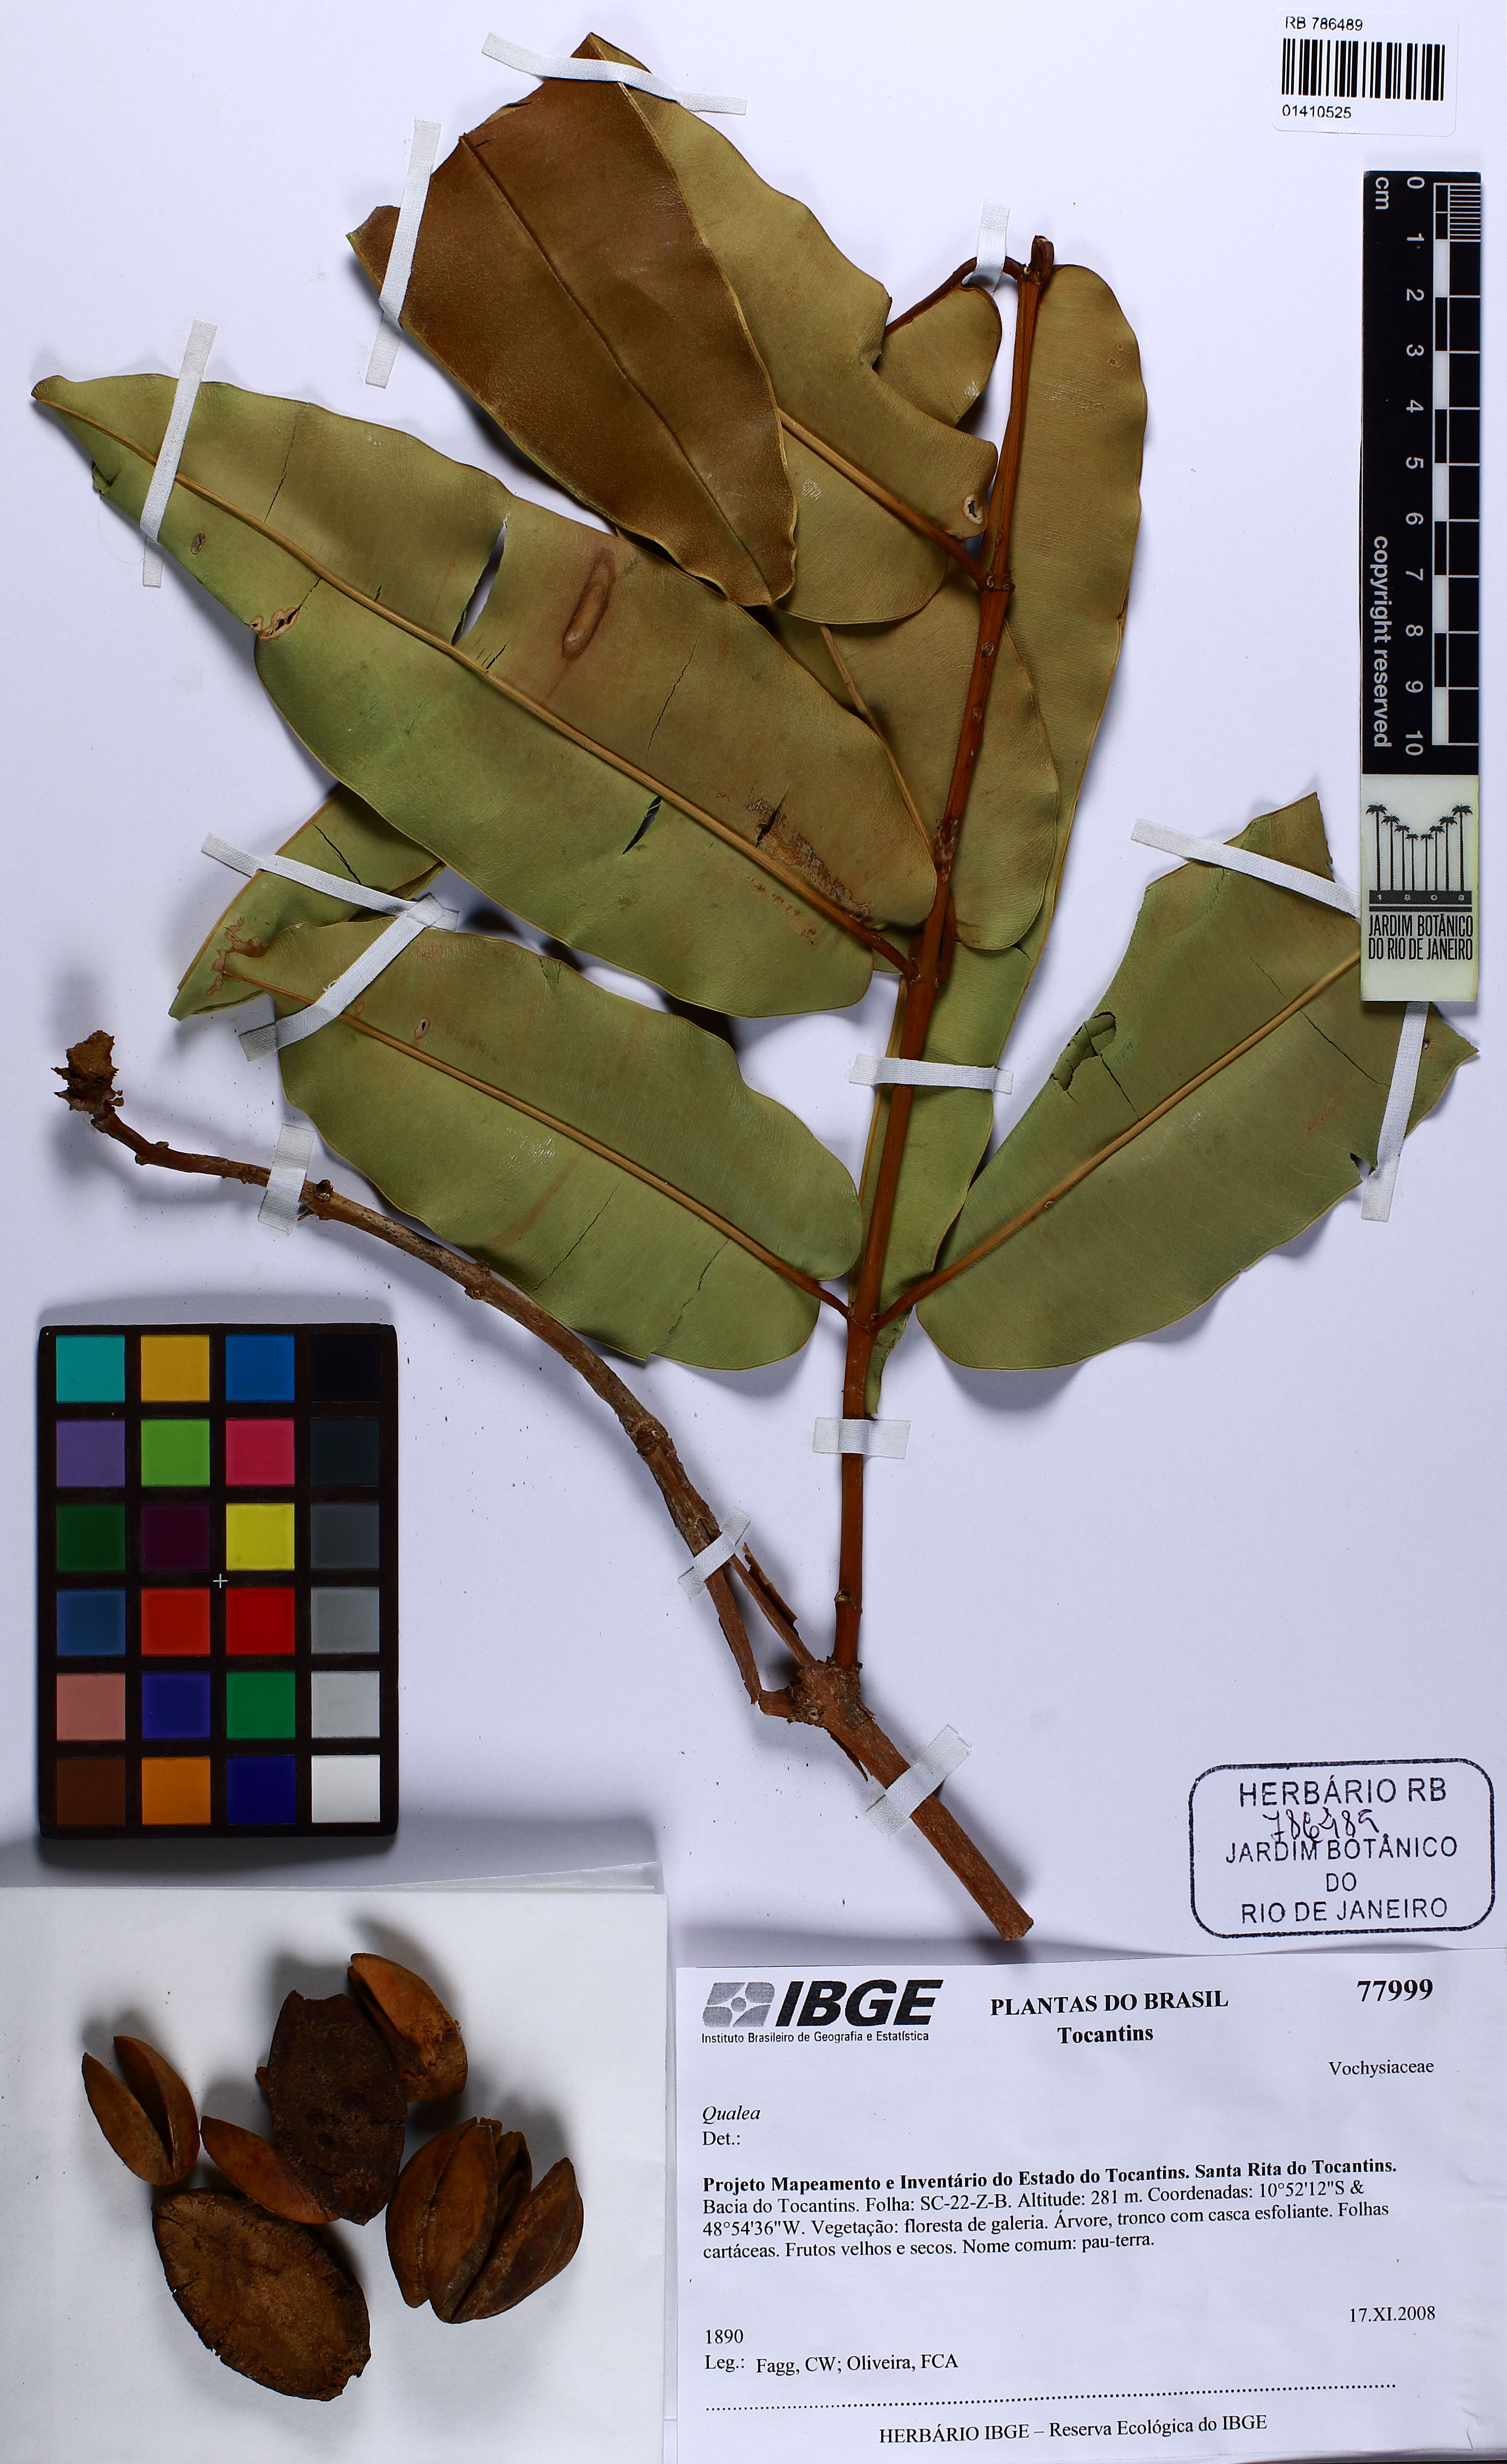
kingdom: Plantae
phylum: Tracheophyta
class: Magnoliopsida
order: Myrtales
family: Vochysiaceae
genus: Qualea
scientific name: Qualea
